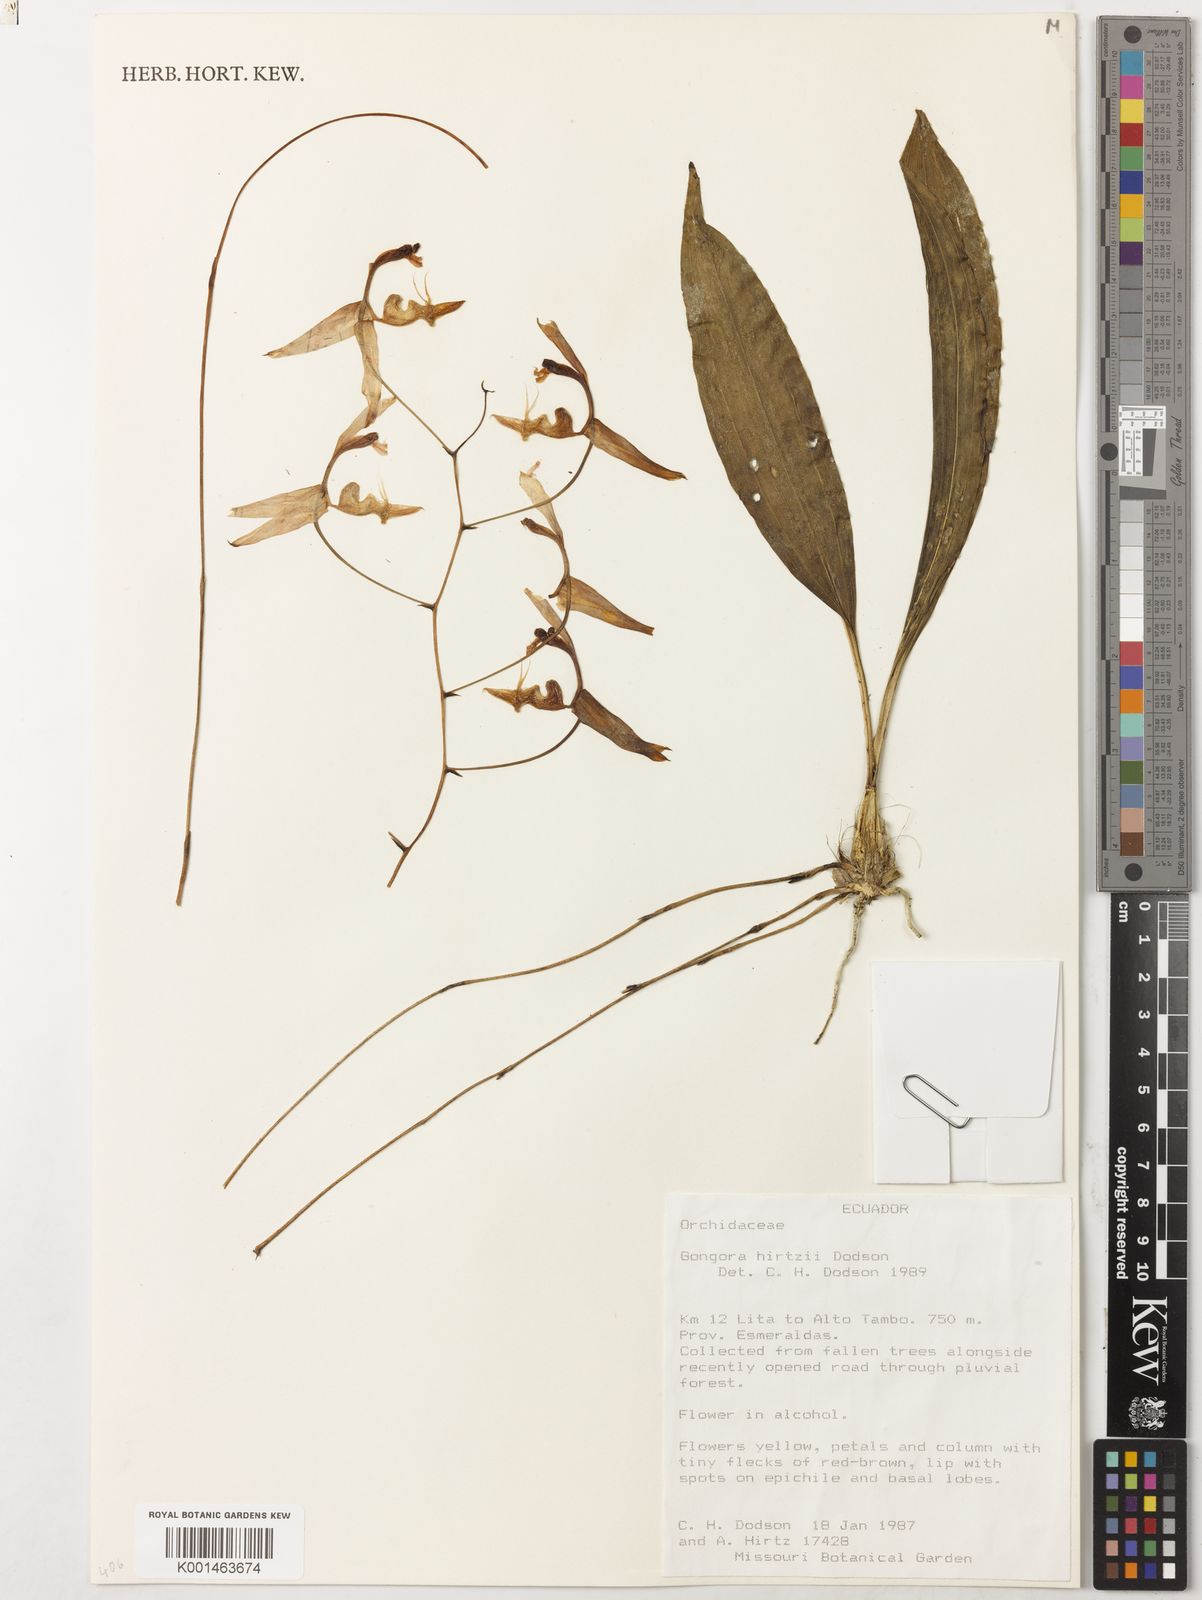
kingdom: Plantae
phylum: Tracheophyta
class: Liliopsida
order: Asparagales
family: Orchidaceae
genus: Gongora
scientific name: Gongora hirtzii
